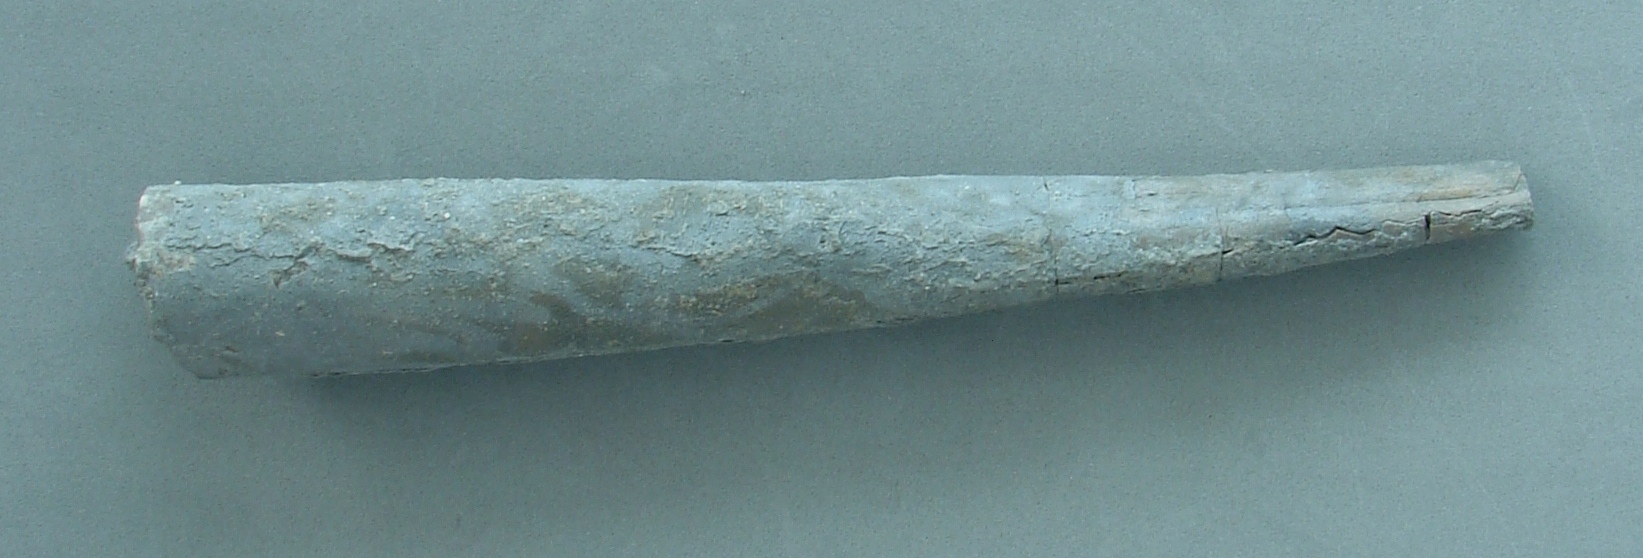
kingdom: Animalia
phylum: Mollusca
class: Cephalopoda
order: Belemnitida
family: Megateuthididae
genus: Acrocoelites
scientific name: Acrocoelites
